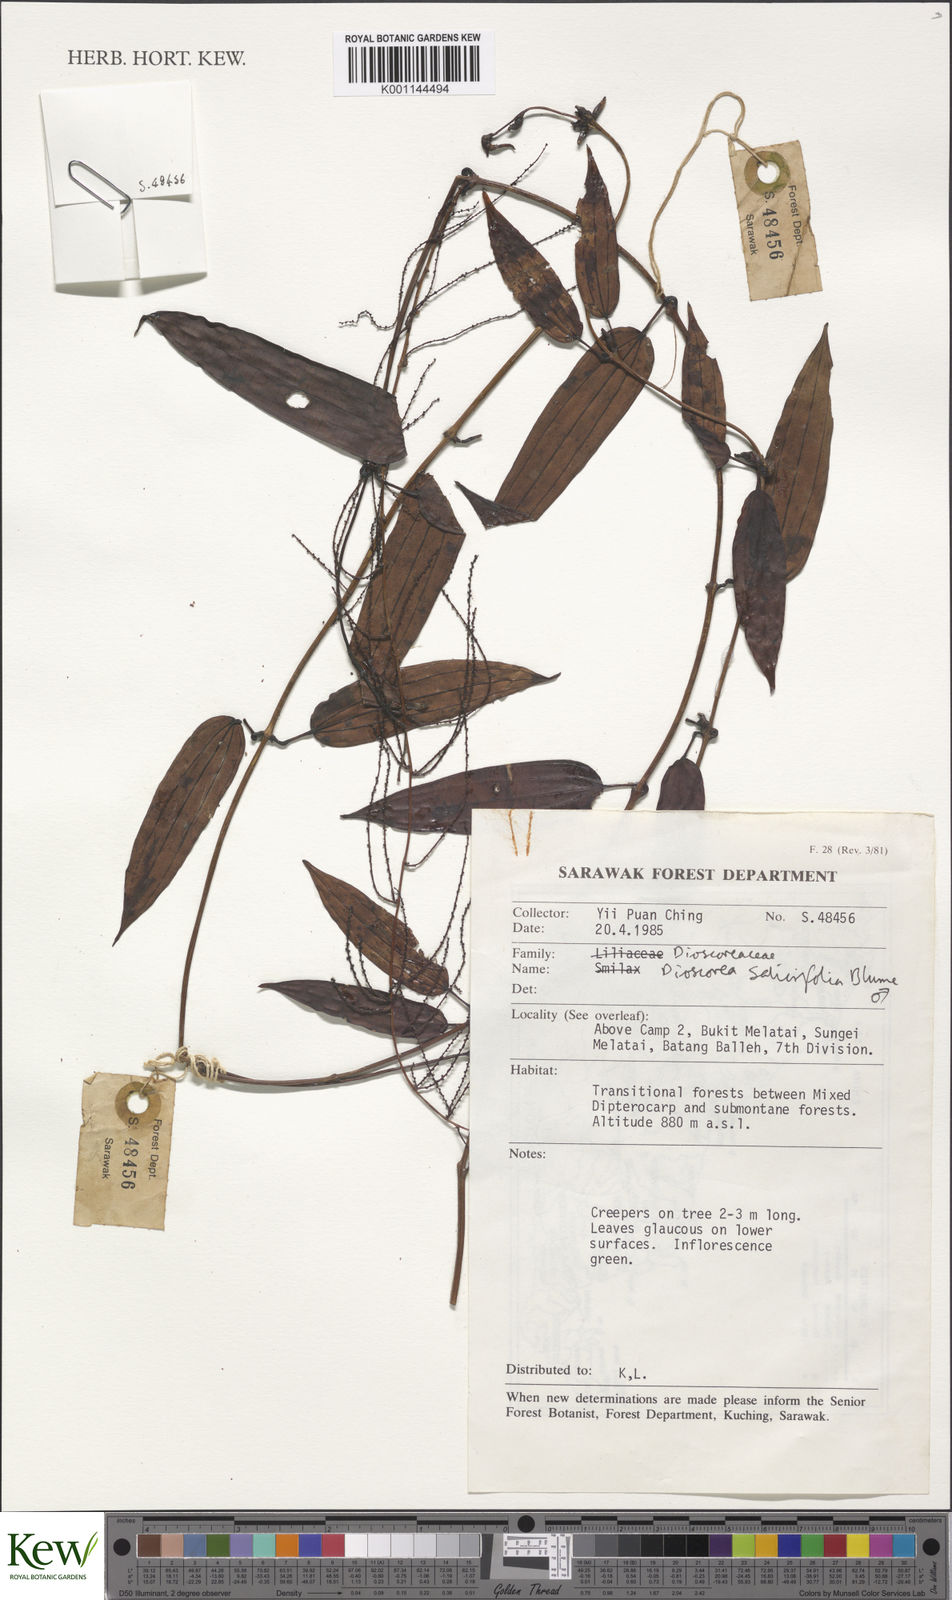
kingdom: Plantae
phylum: Tracheophyta
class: Liliopsida
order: Dioscoreales
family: Dioscoreaceae
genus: Dioscorea
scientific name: Dioscorea salicifolia
